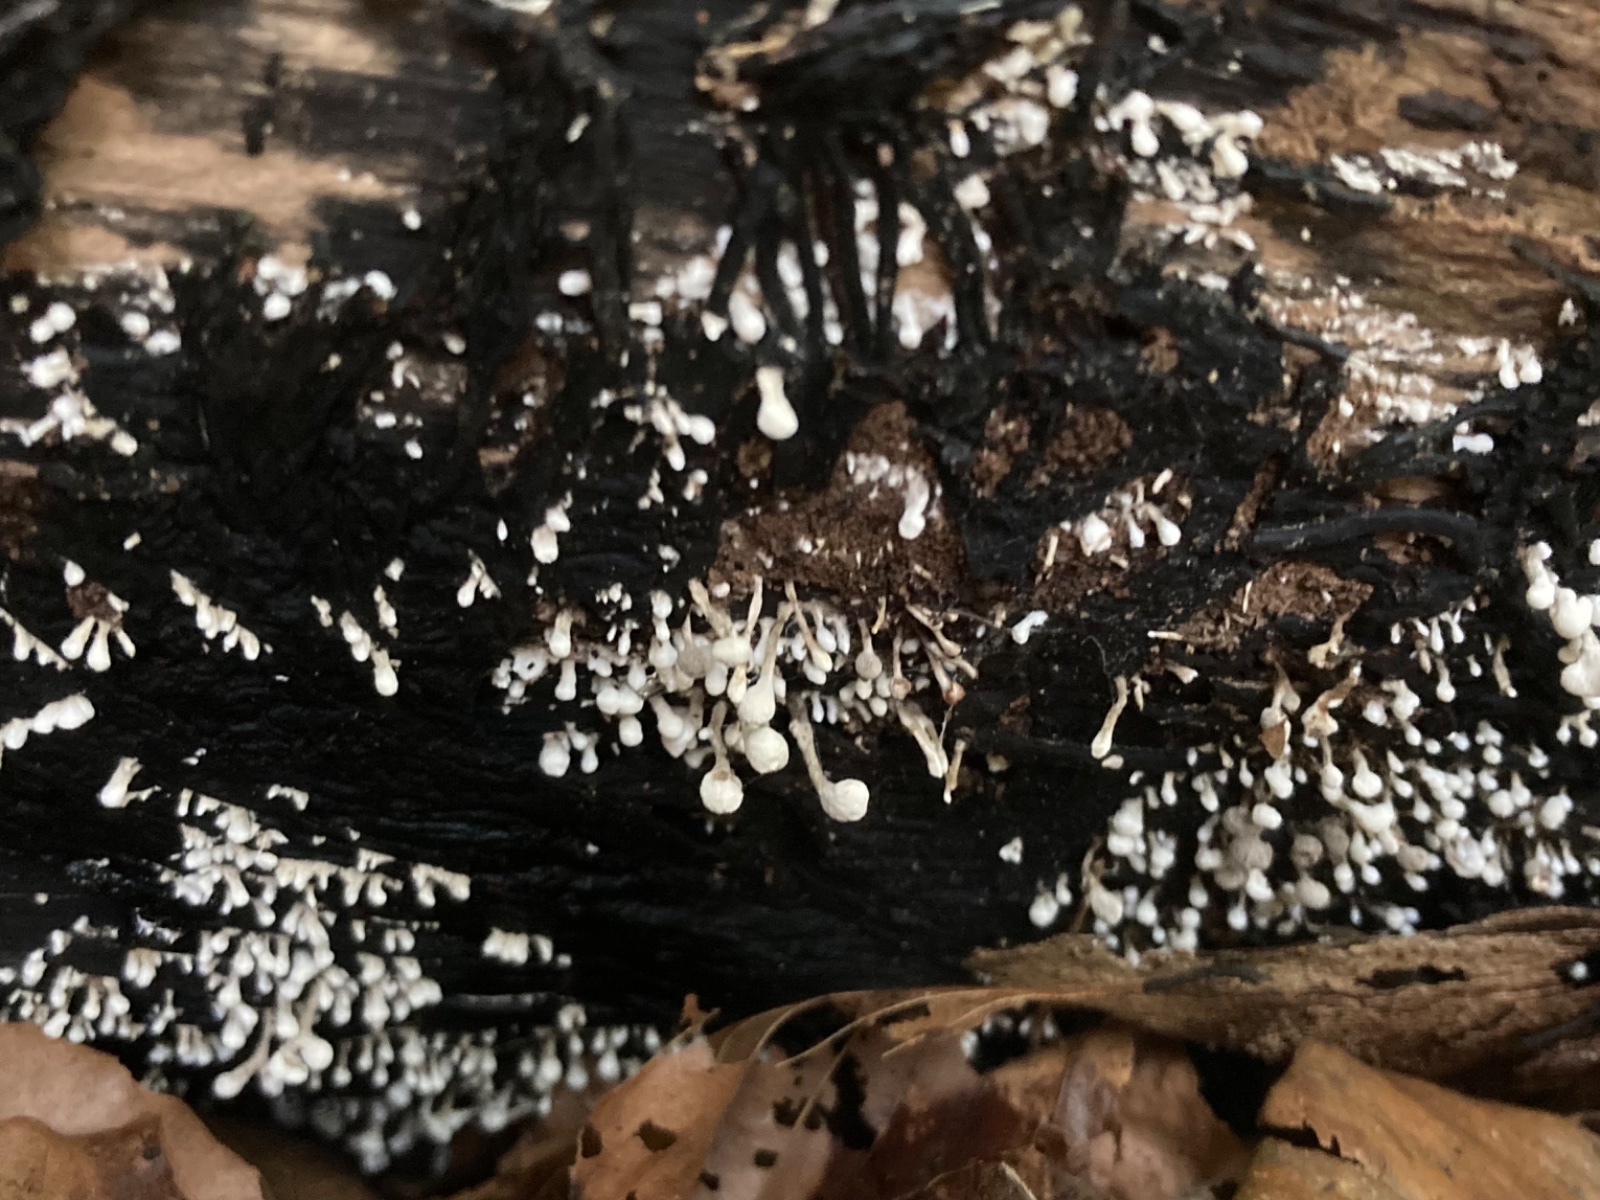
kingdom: Fungi
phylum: Basidiomycota
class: Atractiellomycetes
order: Atractiellales
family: Phleogenaceae
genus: Phleogena
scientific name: Phleogena faginea
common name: pudderkølle
